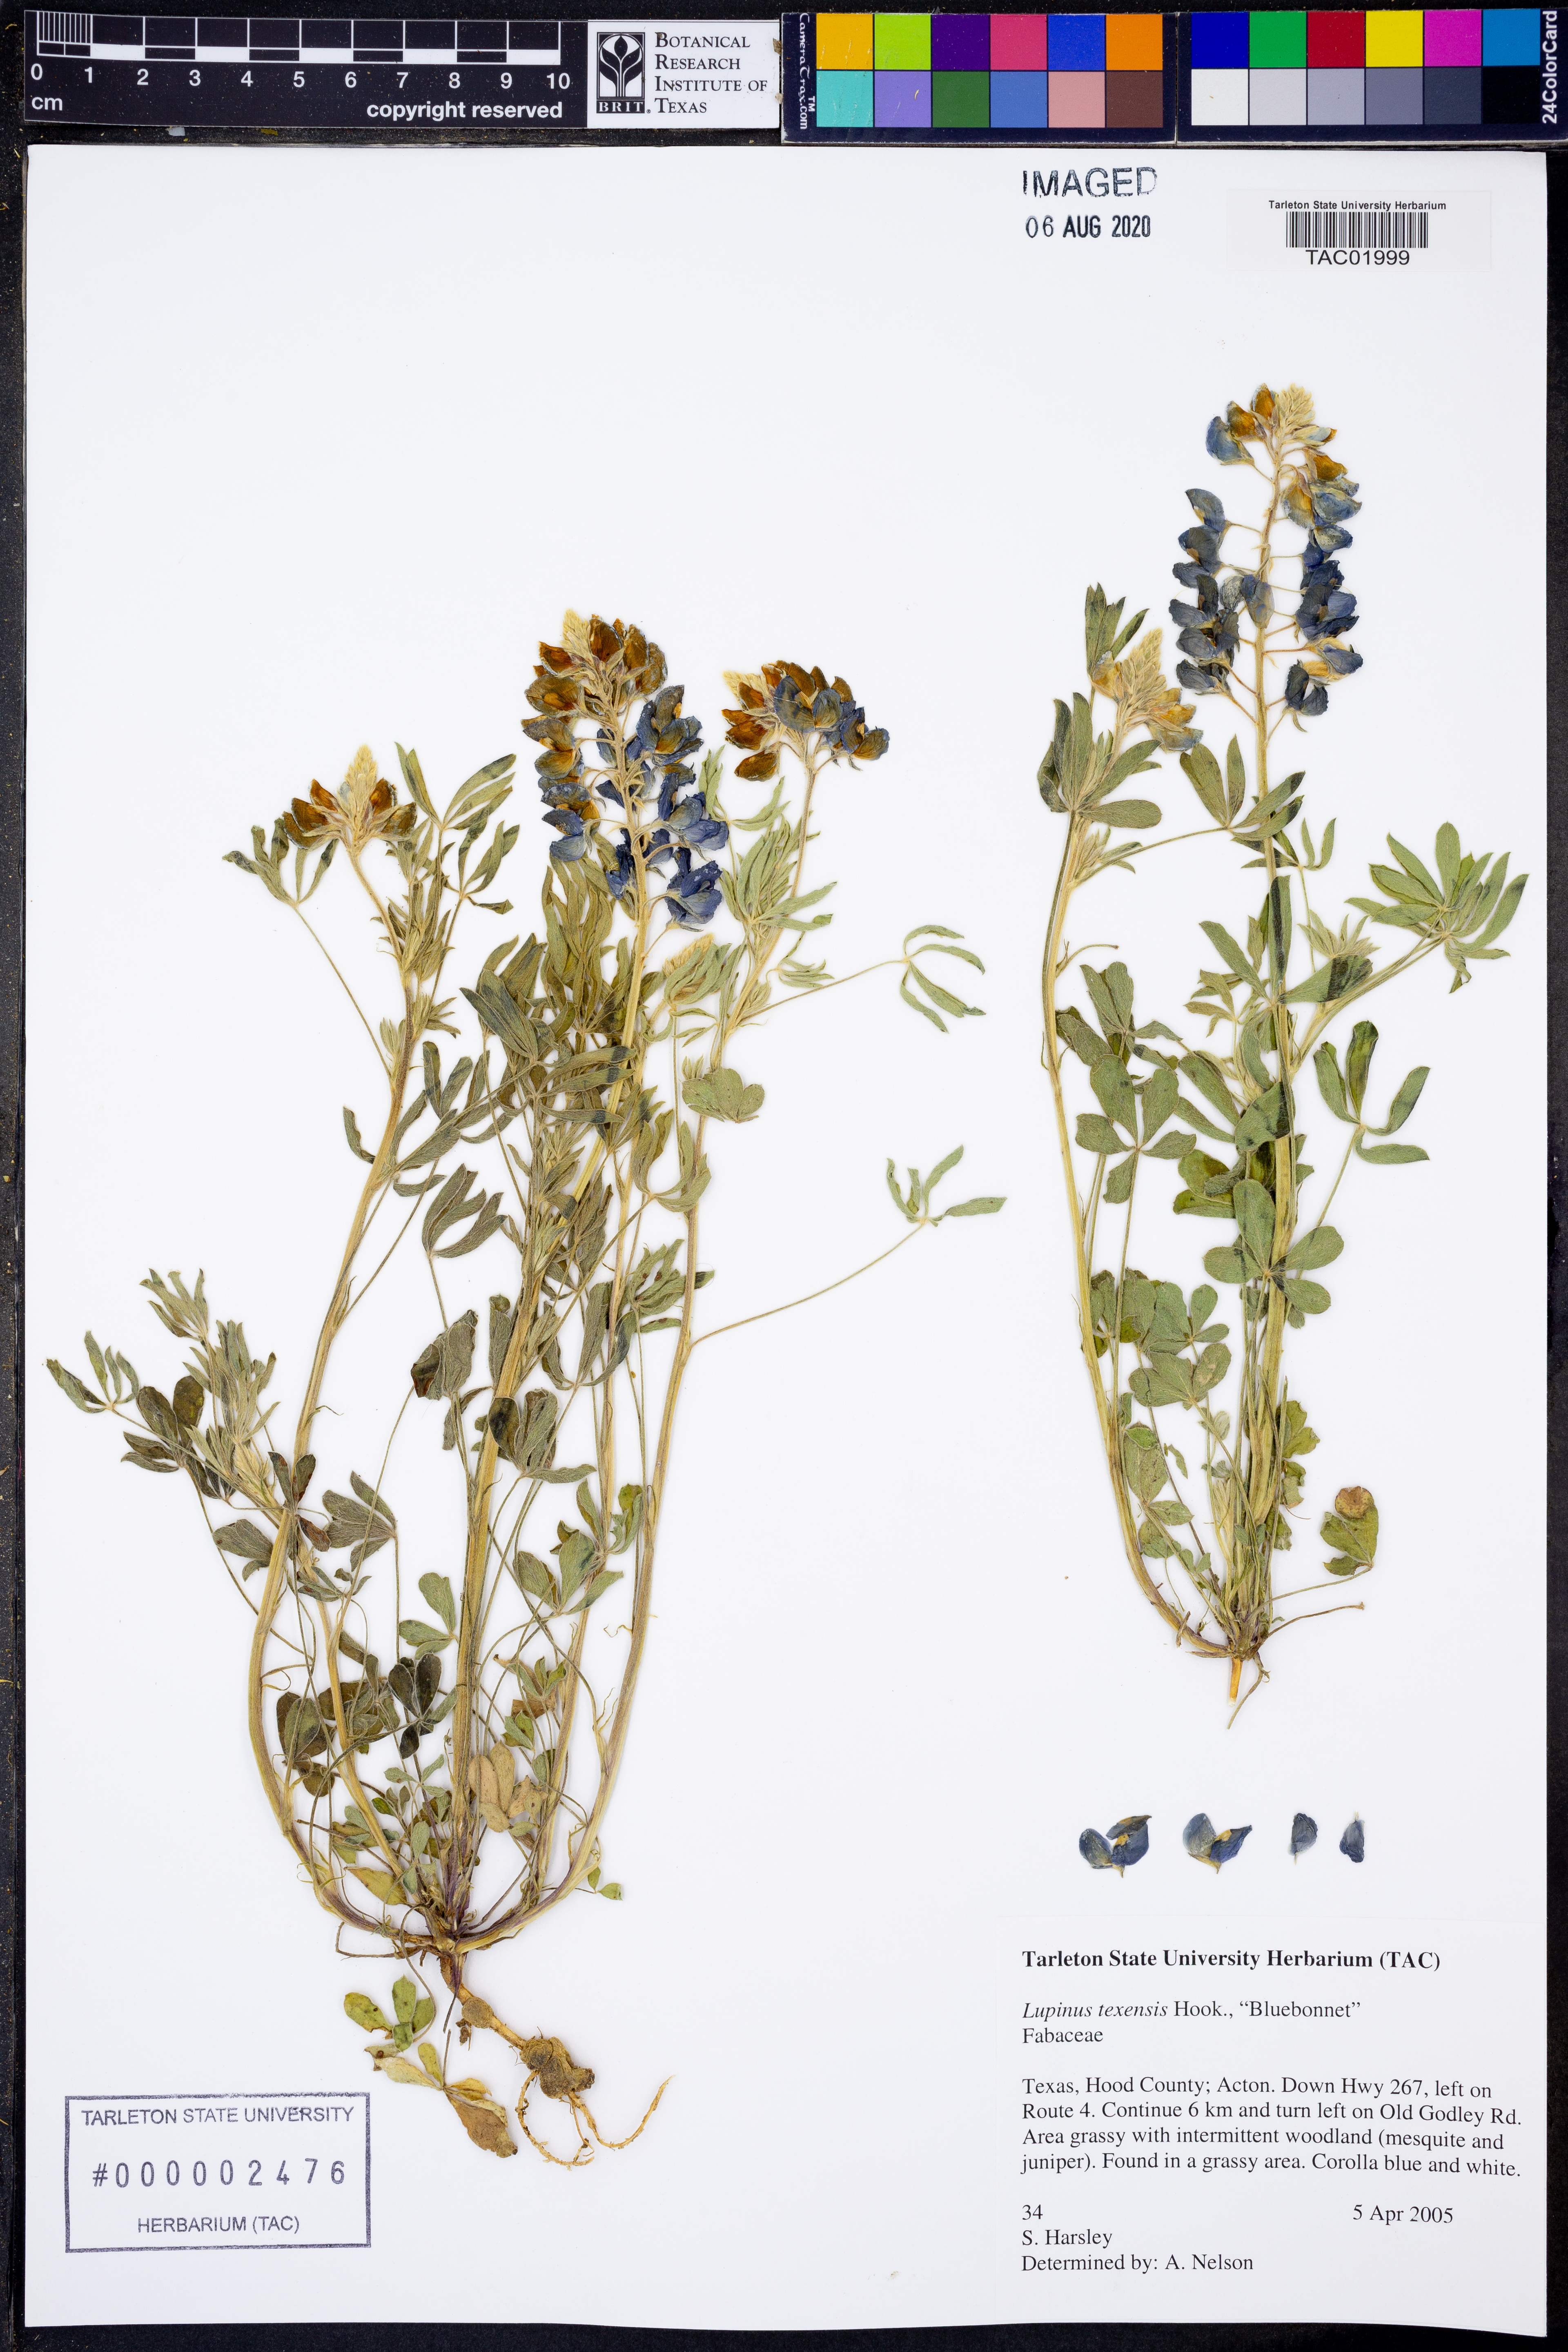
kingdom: Plantae
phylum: Tracheophyta
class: Magnoliopsida
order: Fabales
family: Fabaceae
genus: Lupinus
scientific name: Lupinus texensis
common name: Texas bluebonnet
